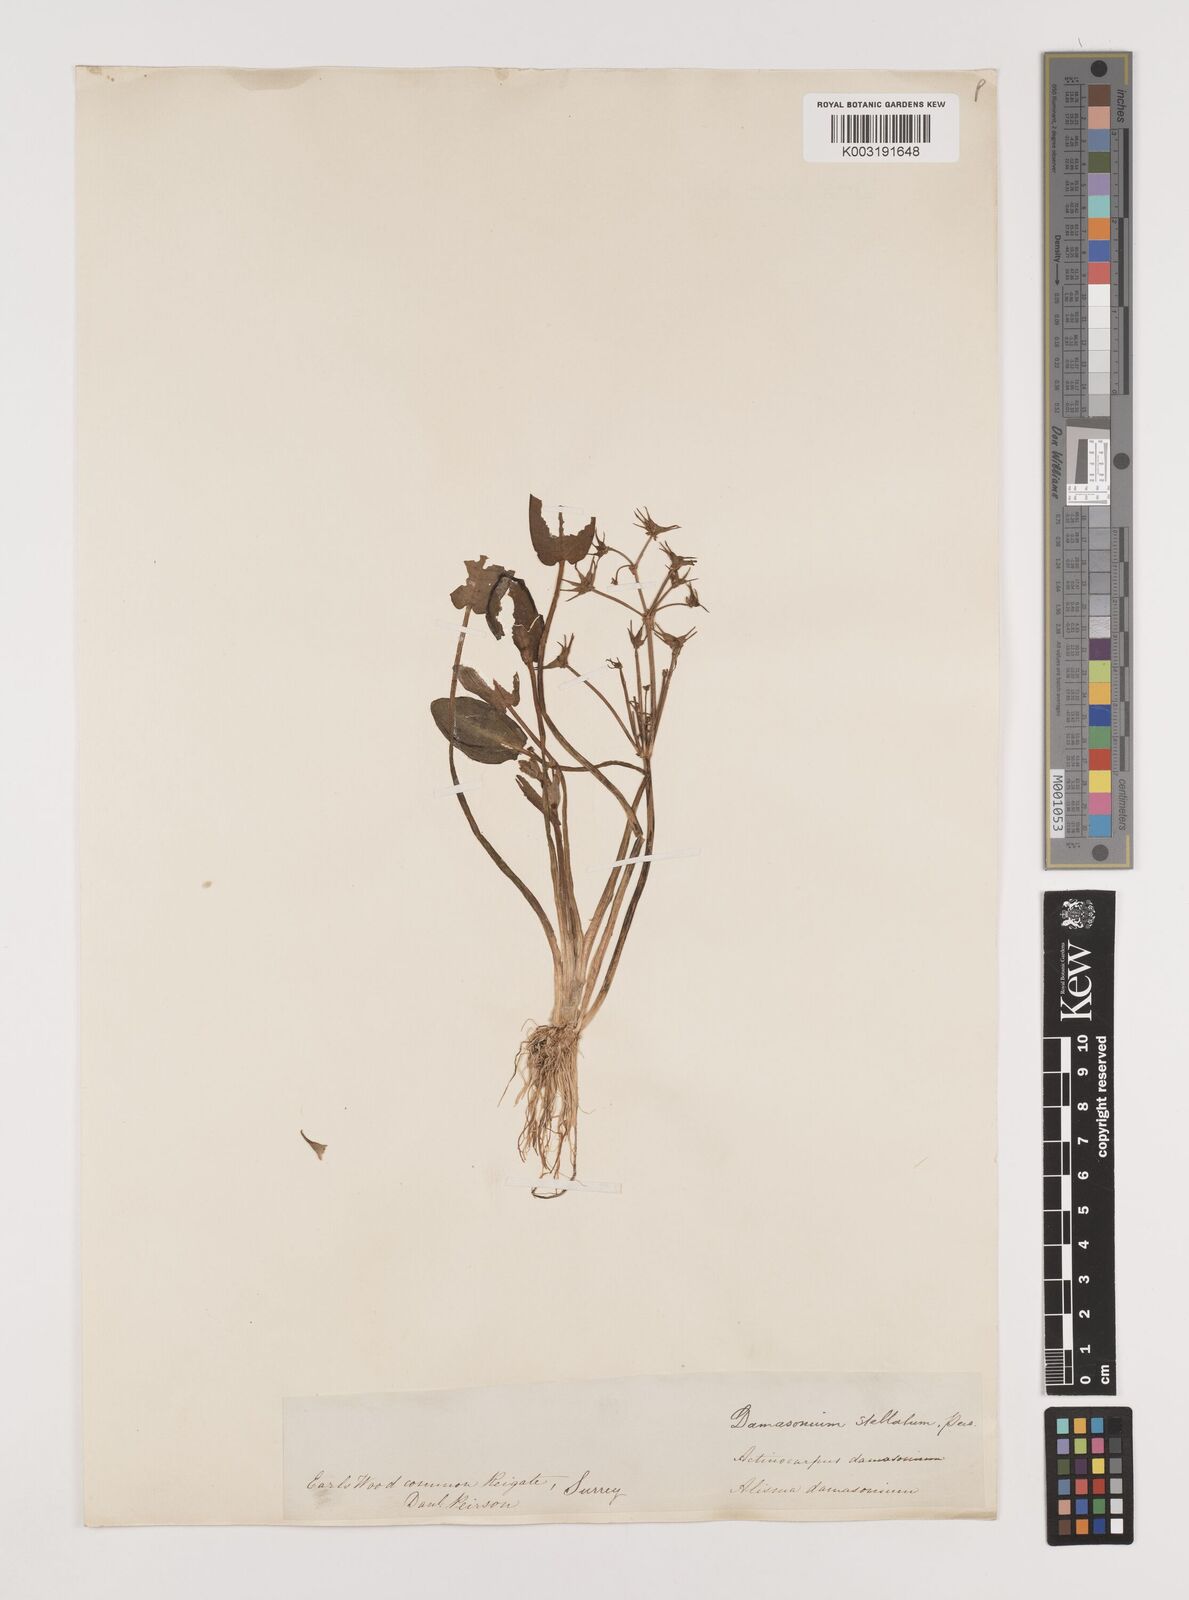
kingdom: Plantae
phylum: Tracheophyta
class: Liliopsida
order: Alismatales
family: Alismataceae
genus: Damasonium
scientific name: Damasonium alisma
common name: Starfruit
